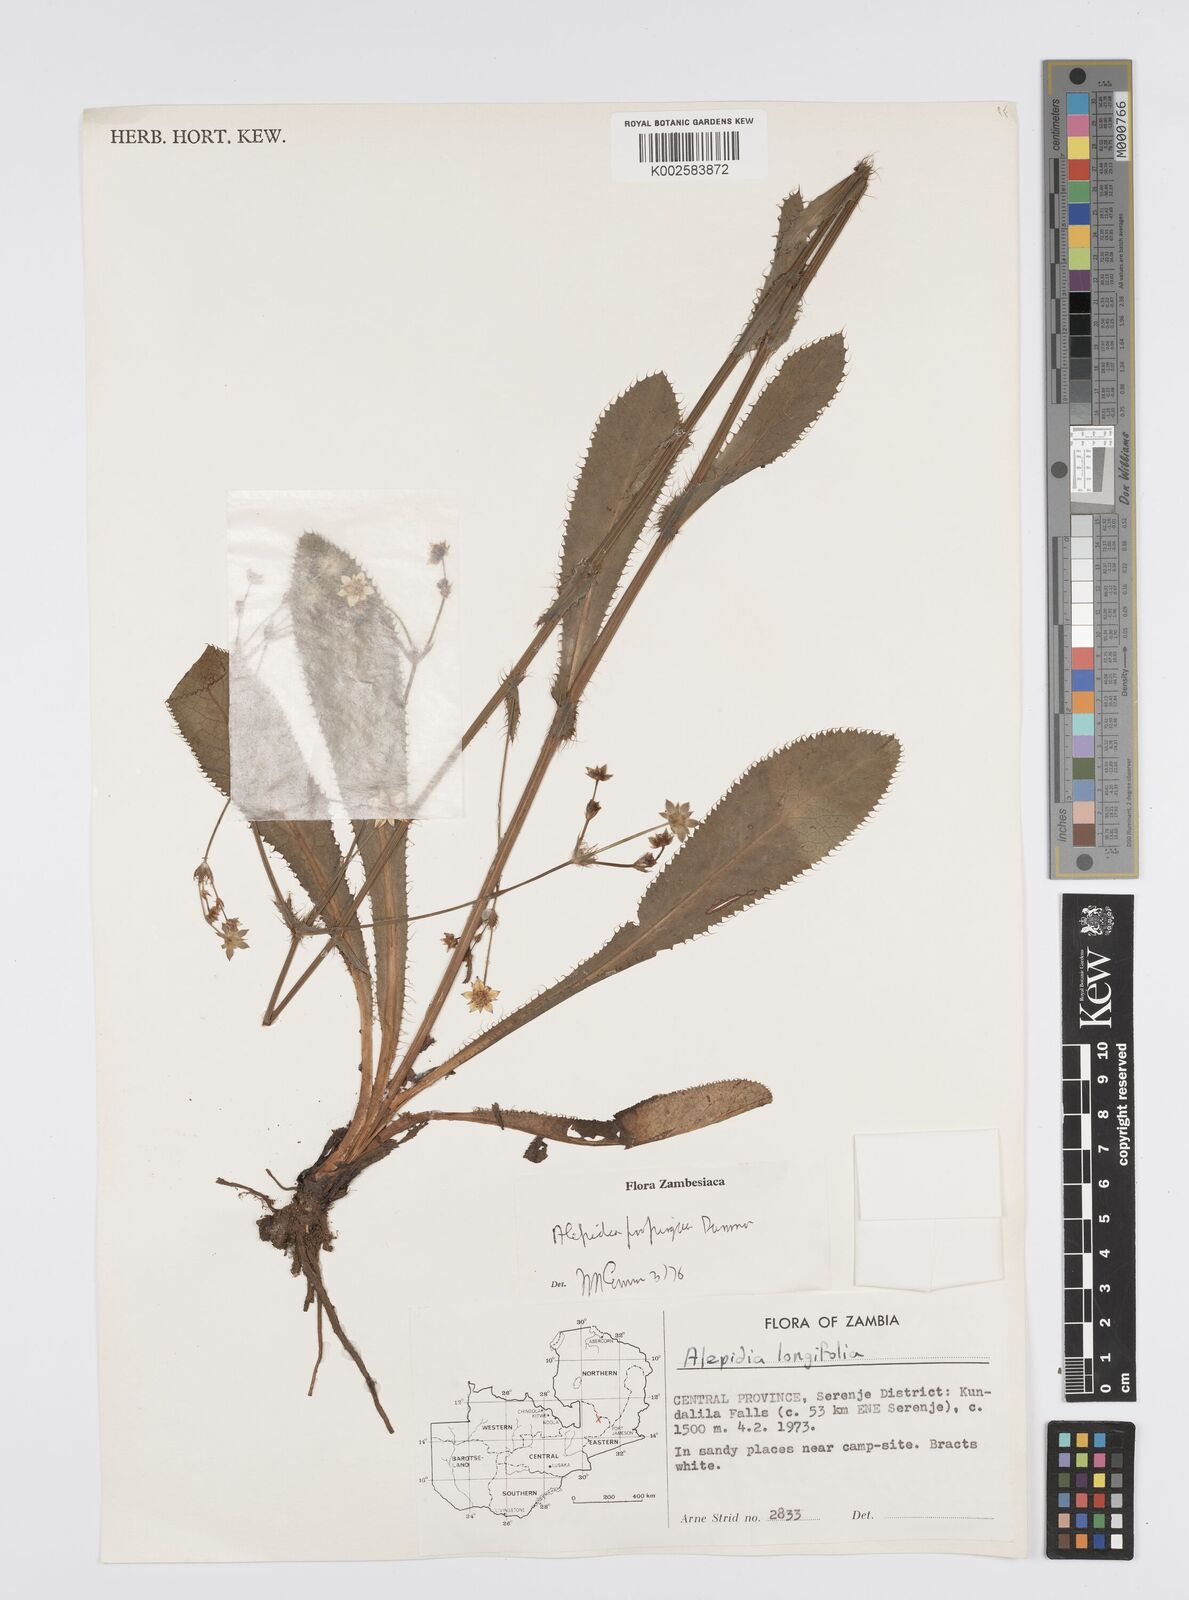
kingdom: Plantae
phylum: Tracheophyta
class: Magnoliopsida
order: Apiales
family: Apiaceae
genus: Alepidea
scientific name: Alepidea
